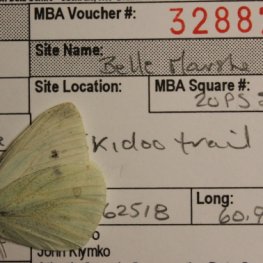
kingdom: Animalia
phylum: Arthropoda
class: Insecta
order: Lepidoptera
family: Pieridae
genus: Pieris
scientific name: Pieris rapae
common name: Cabbage White
